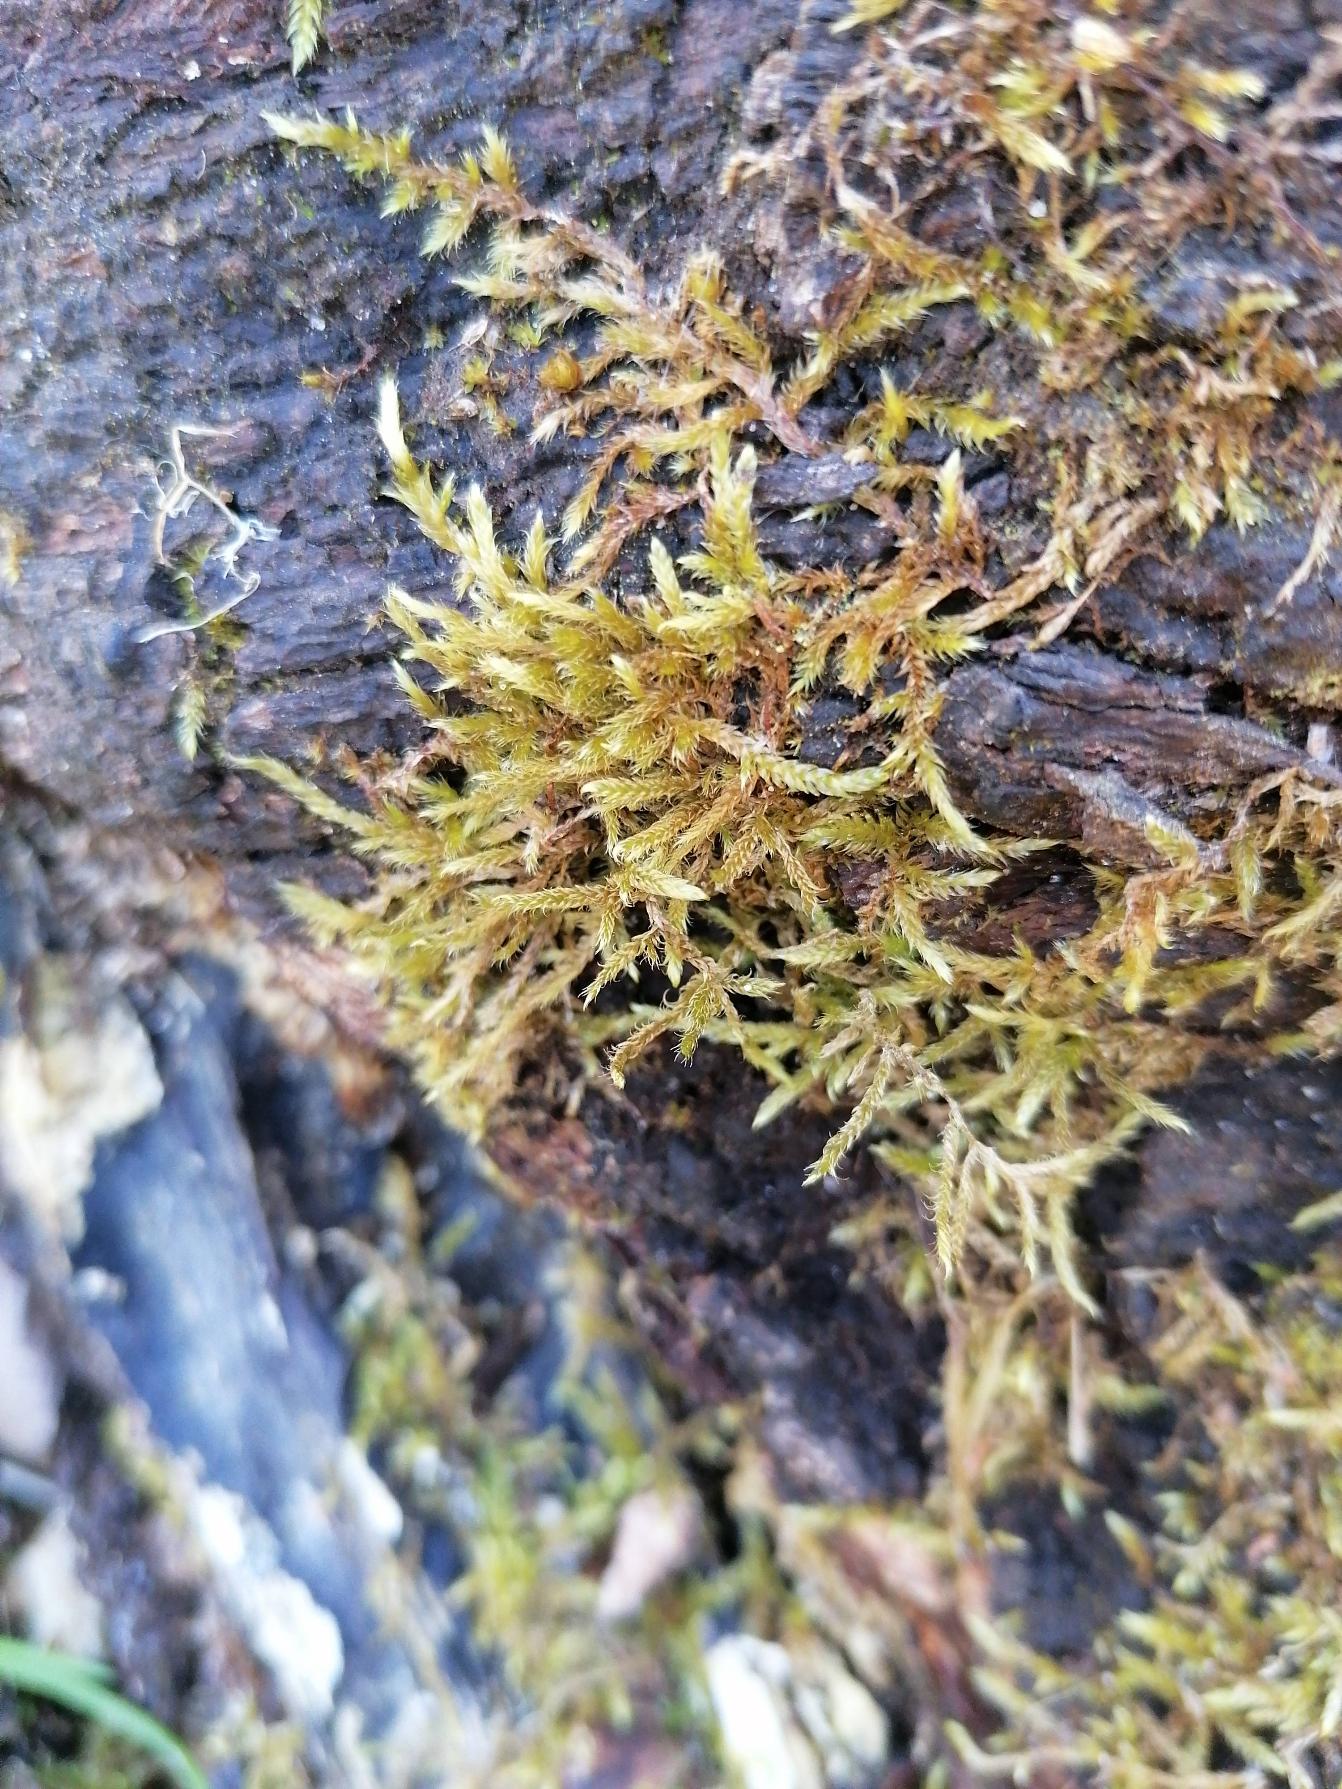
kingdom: Plantae
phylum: Bryophyta
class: Bryopsida
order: Hypnales
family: Hypnaceae
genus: Hypnum
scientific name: Hypnum cupressiforme
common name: Almindelig cypresmos
